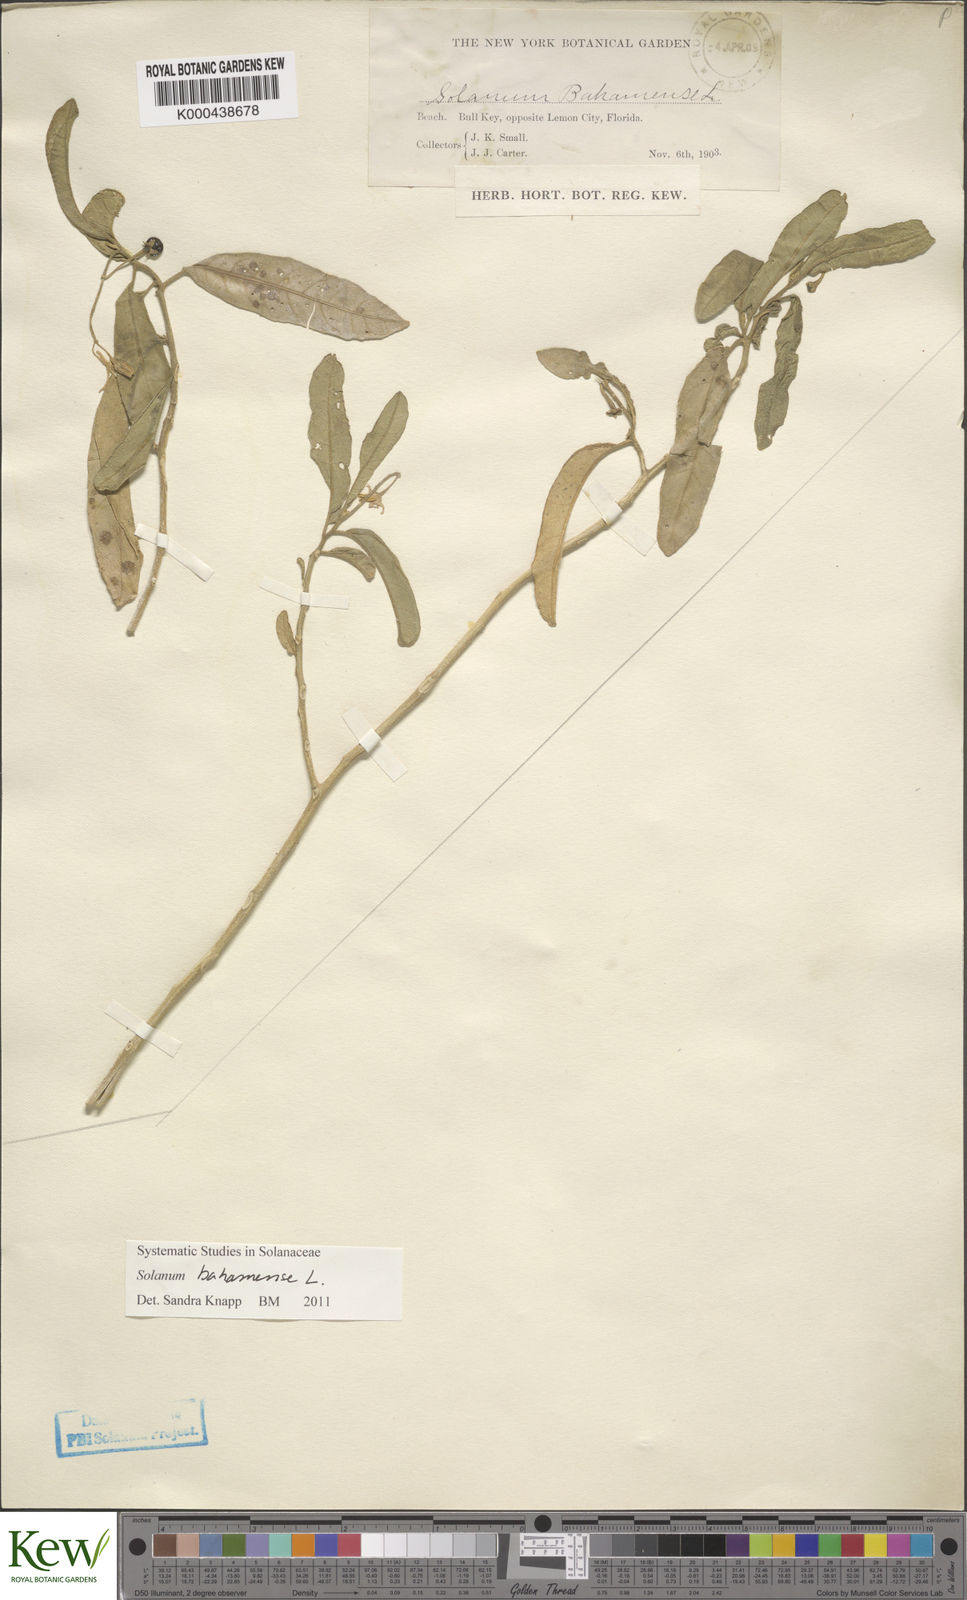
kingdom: Plantae
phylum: Tracheophyta
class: Magnoliopsida
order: Solanales
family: Solanaceae
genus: Solanum
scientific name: Solanum bahamense
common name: Canker-berry
